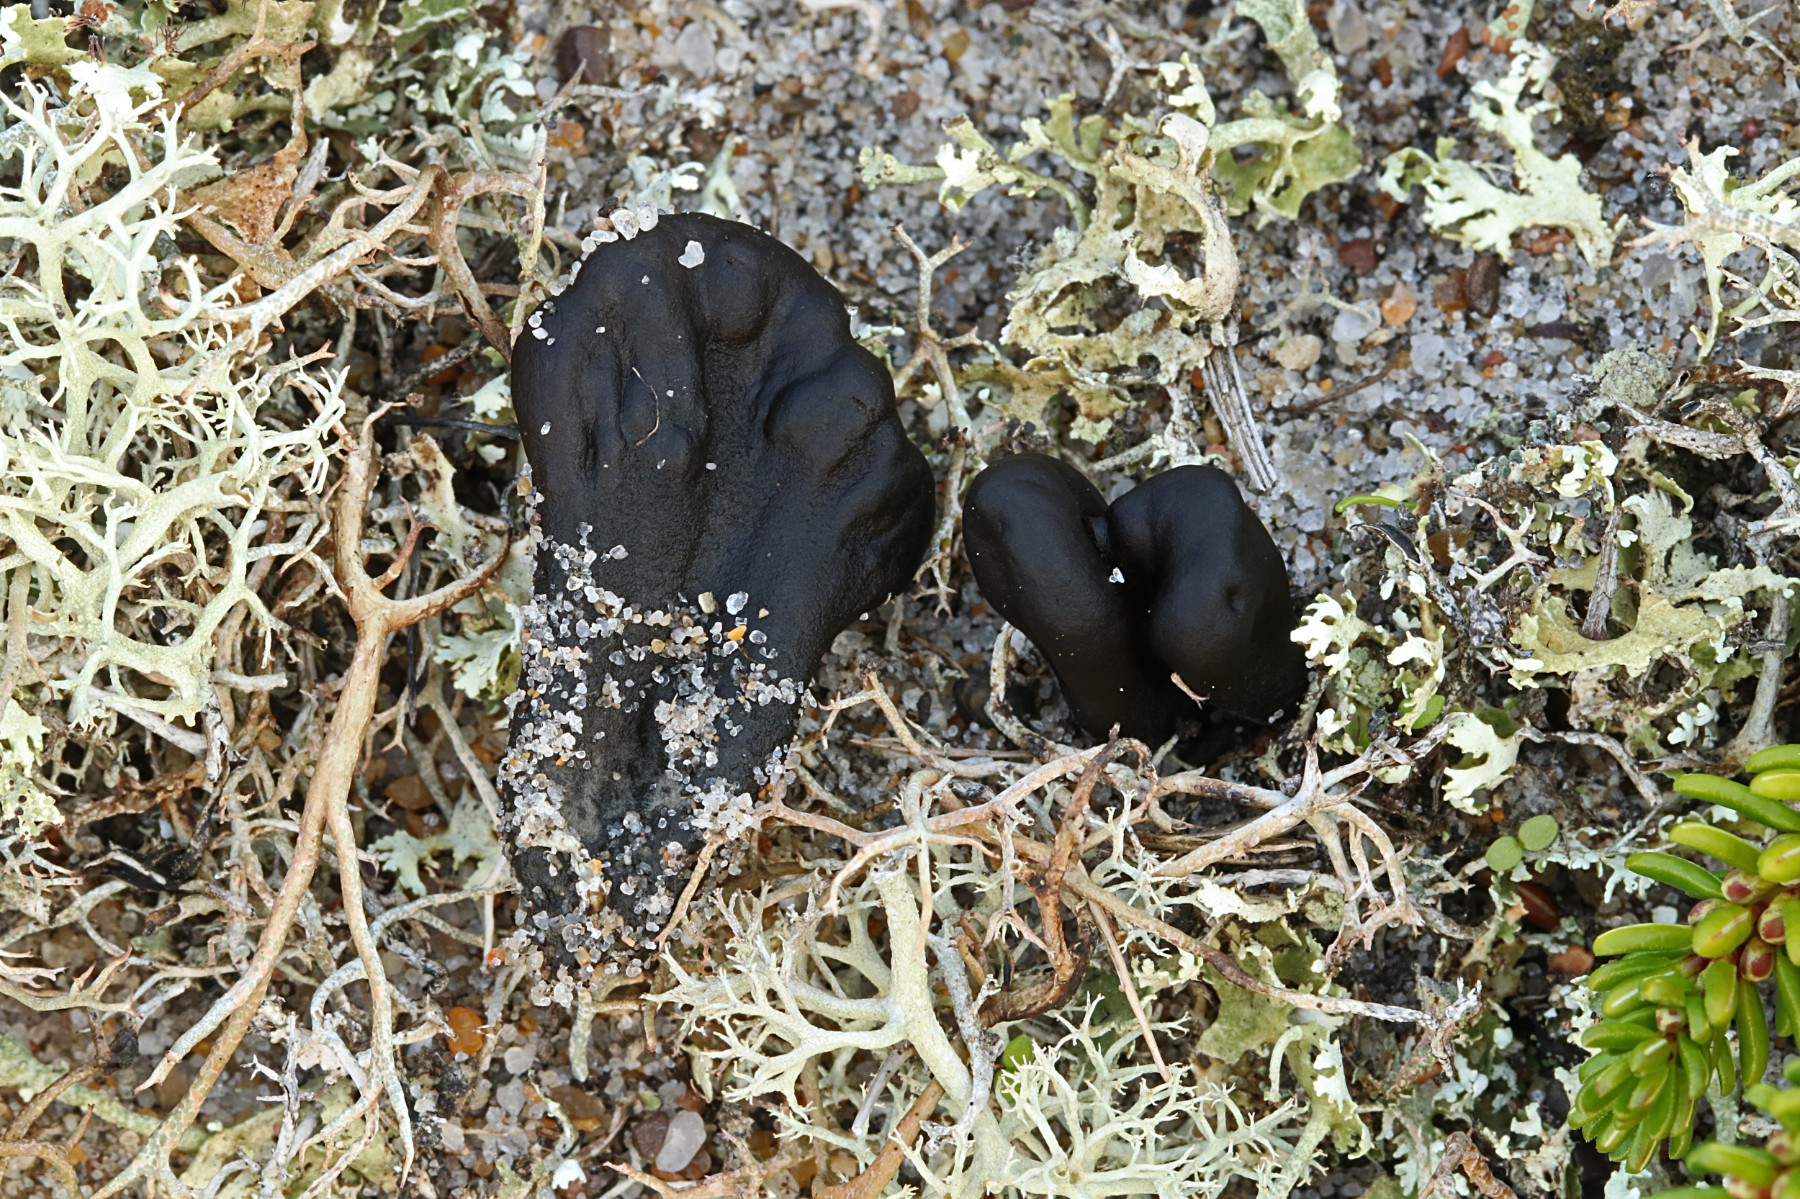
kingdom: Fungi
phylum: Ascomycota
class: Geoglossomycetes
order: Geoglossales
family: Geoglossaceae
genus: Sabuloglossum
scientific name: Sabuloglossum arenarium
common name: klit-jordtunge
